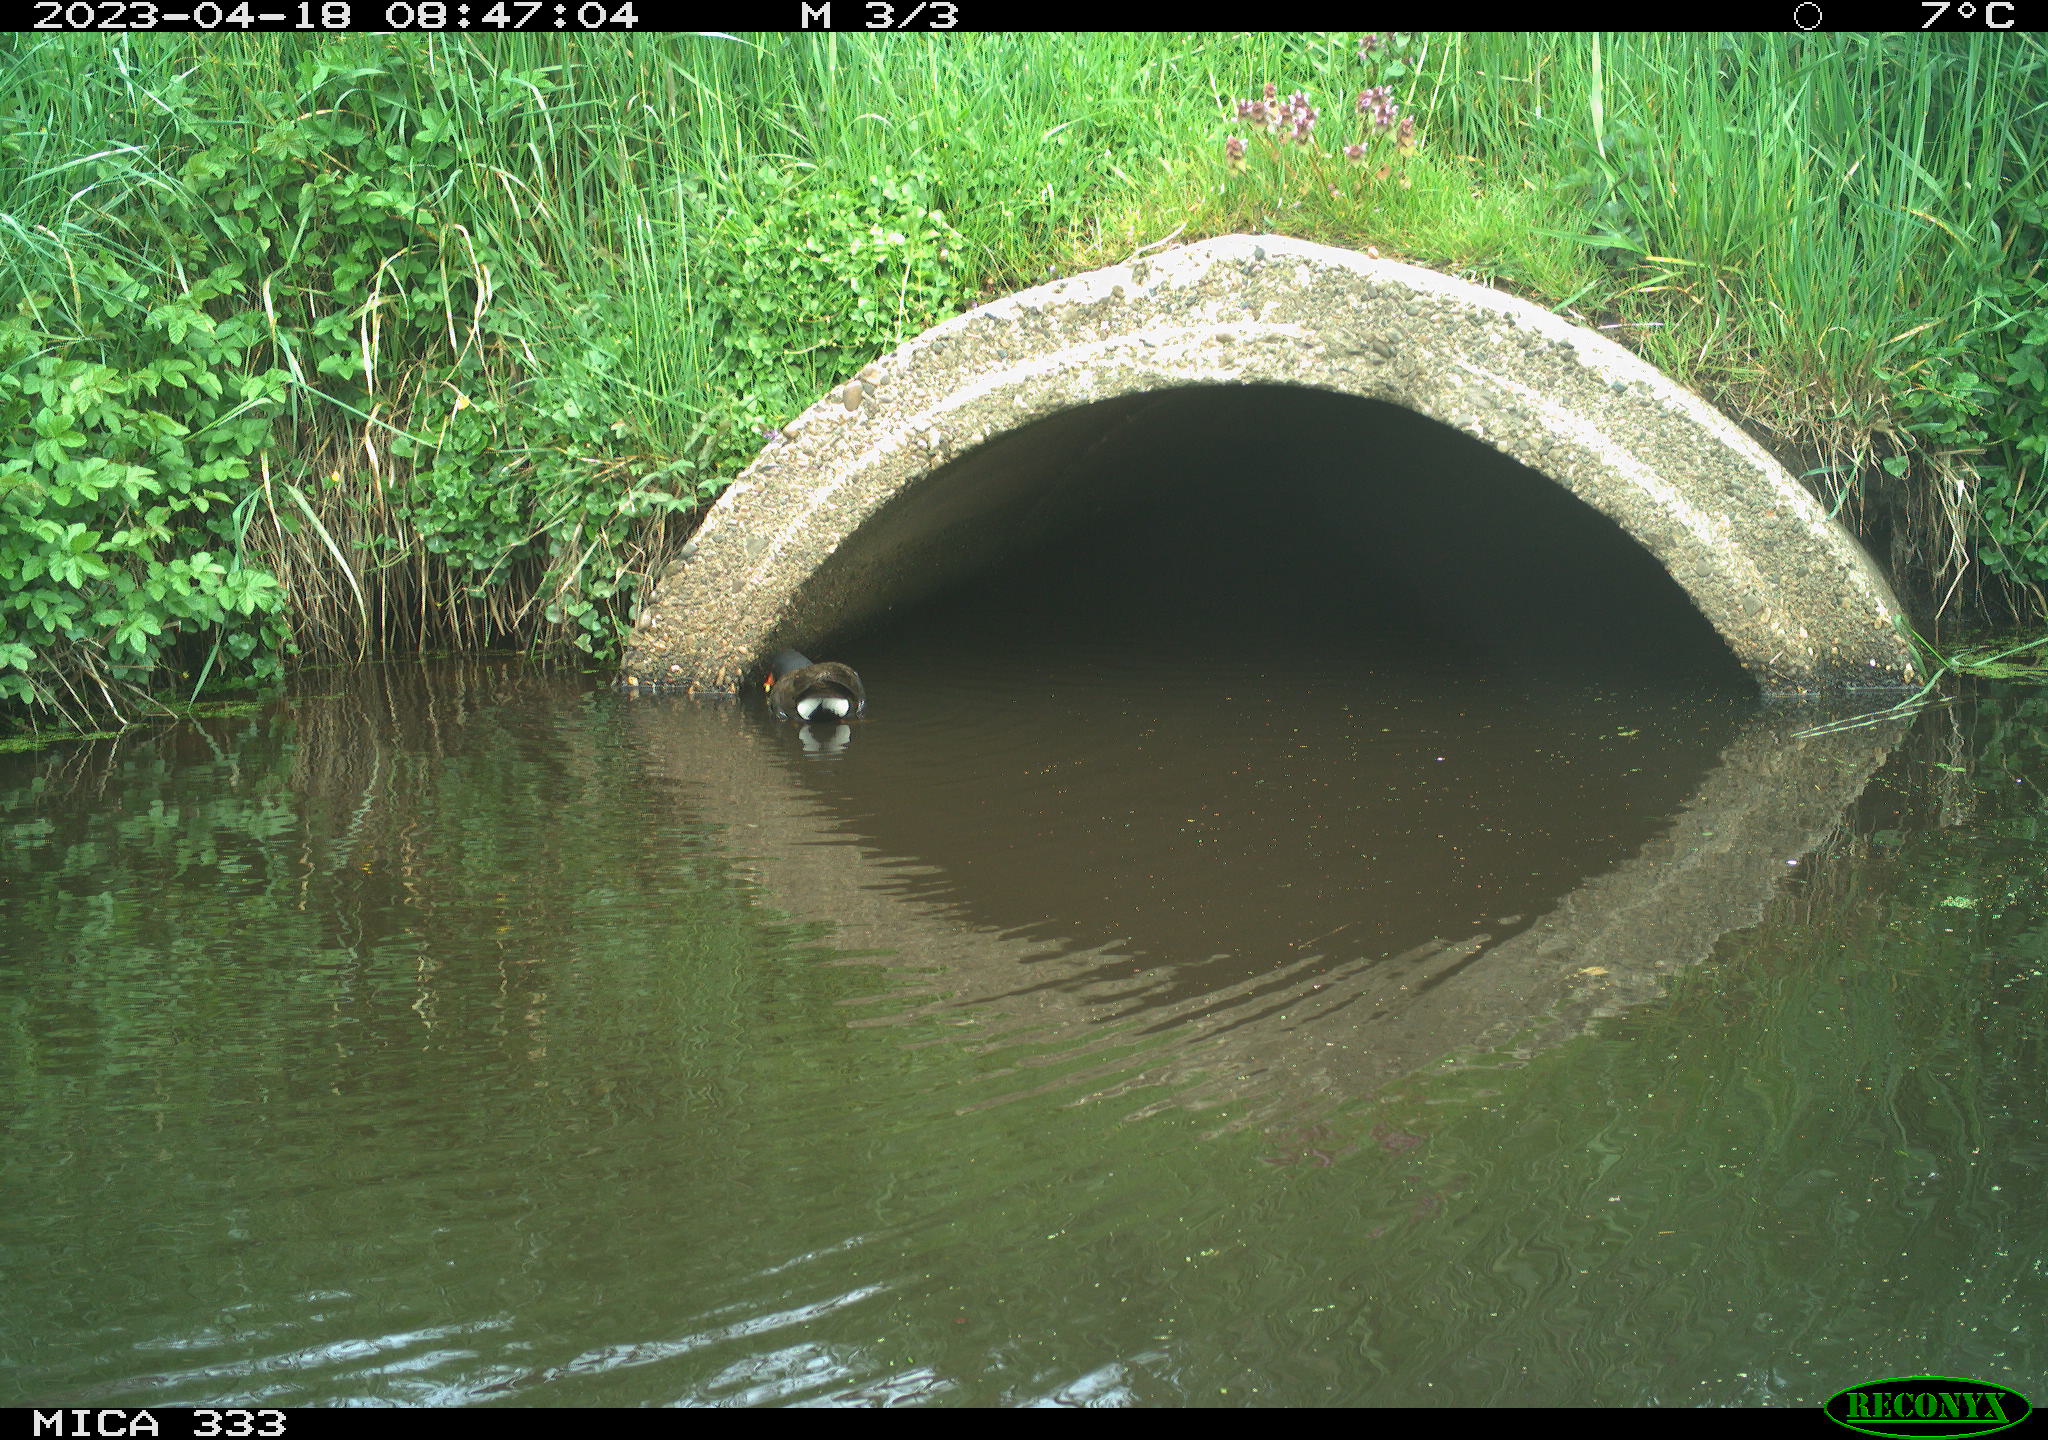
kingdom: Animalia
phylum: Chordata
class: Aves
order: Gruiformes
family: Rallidae
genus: Gallinula
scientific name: Gallinula chloropus
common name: Common moorhen
